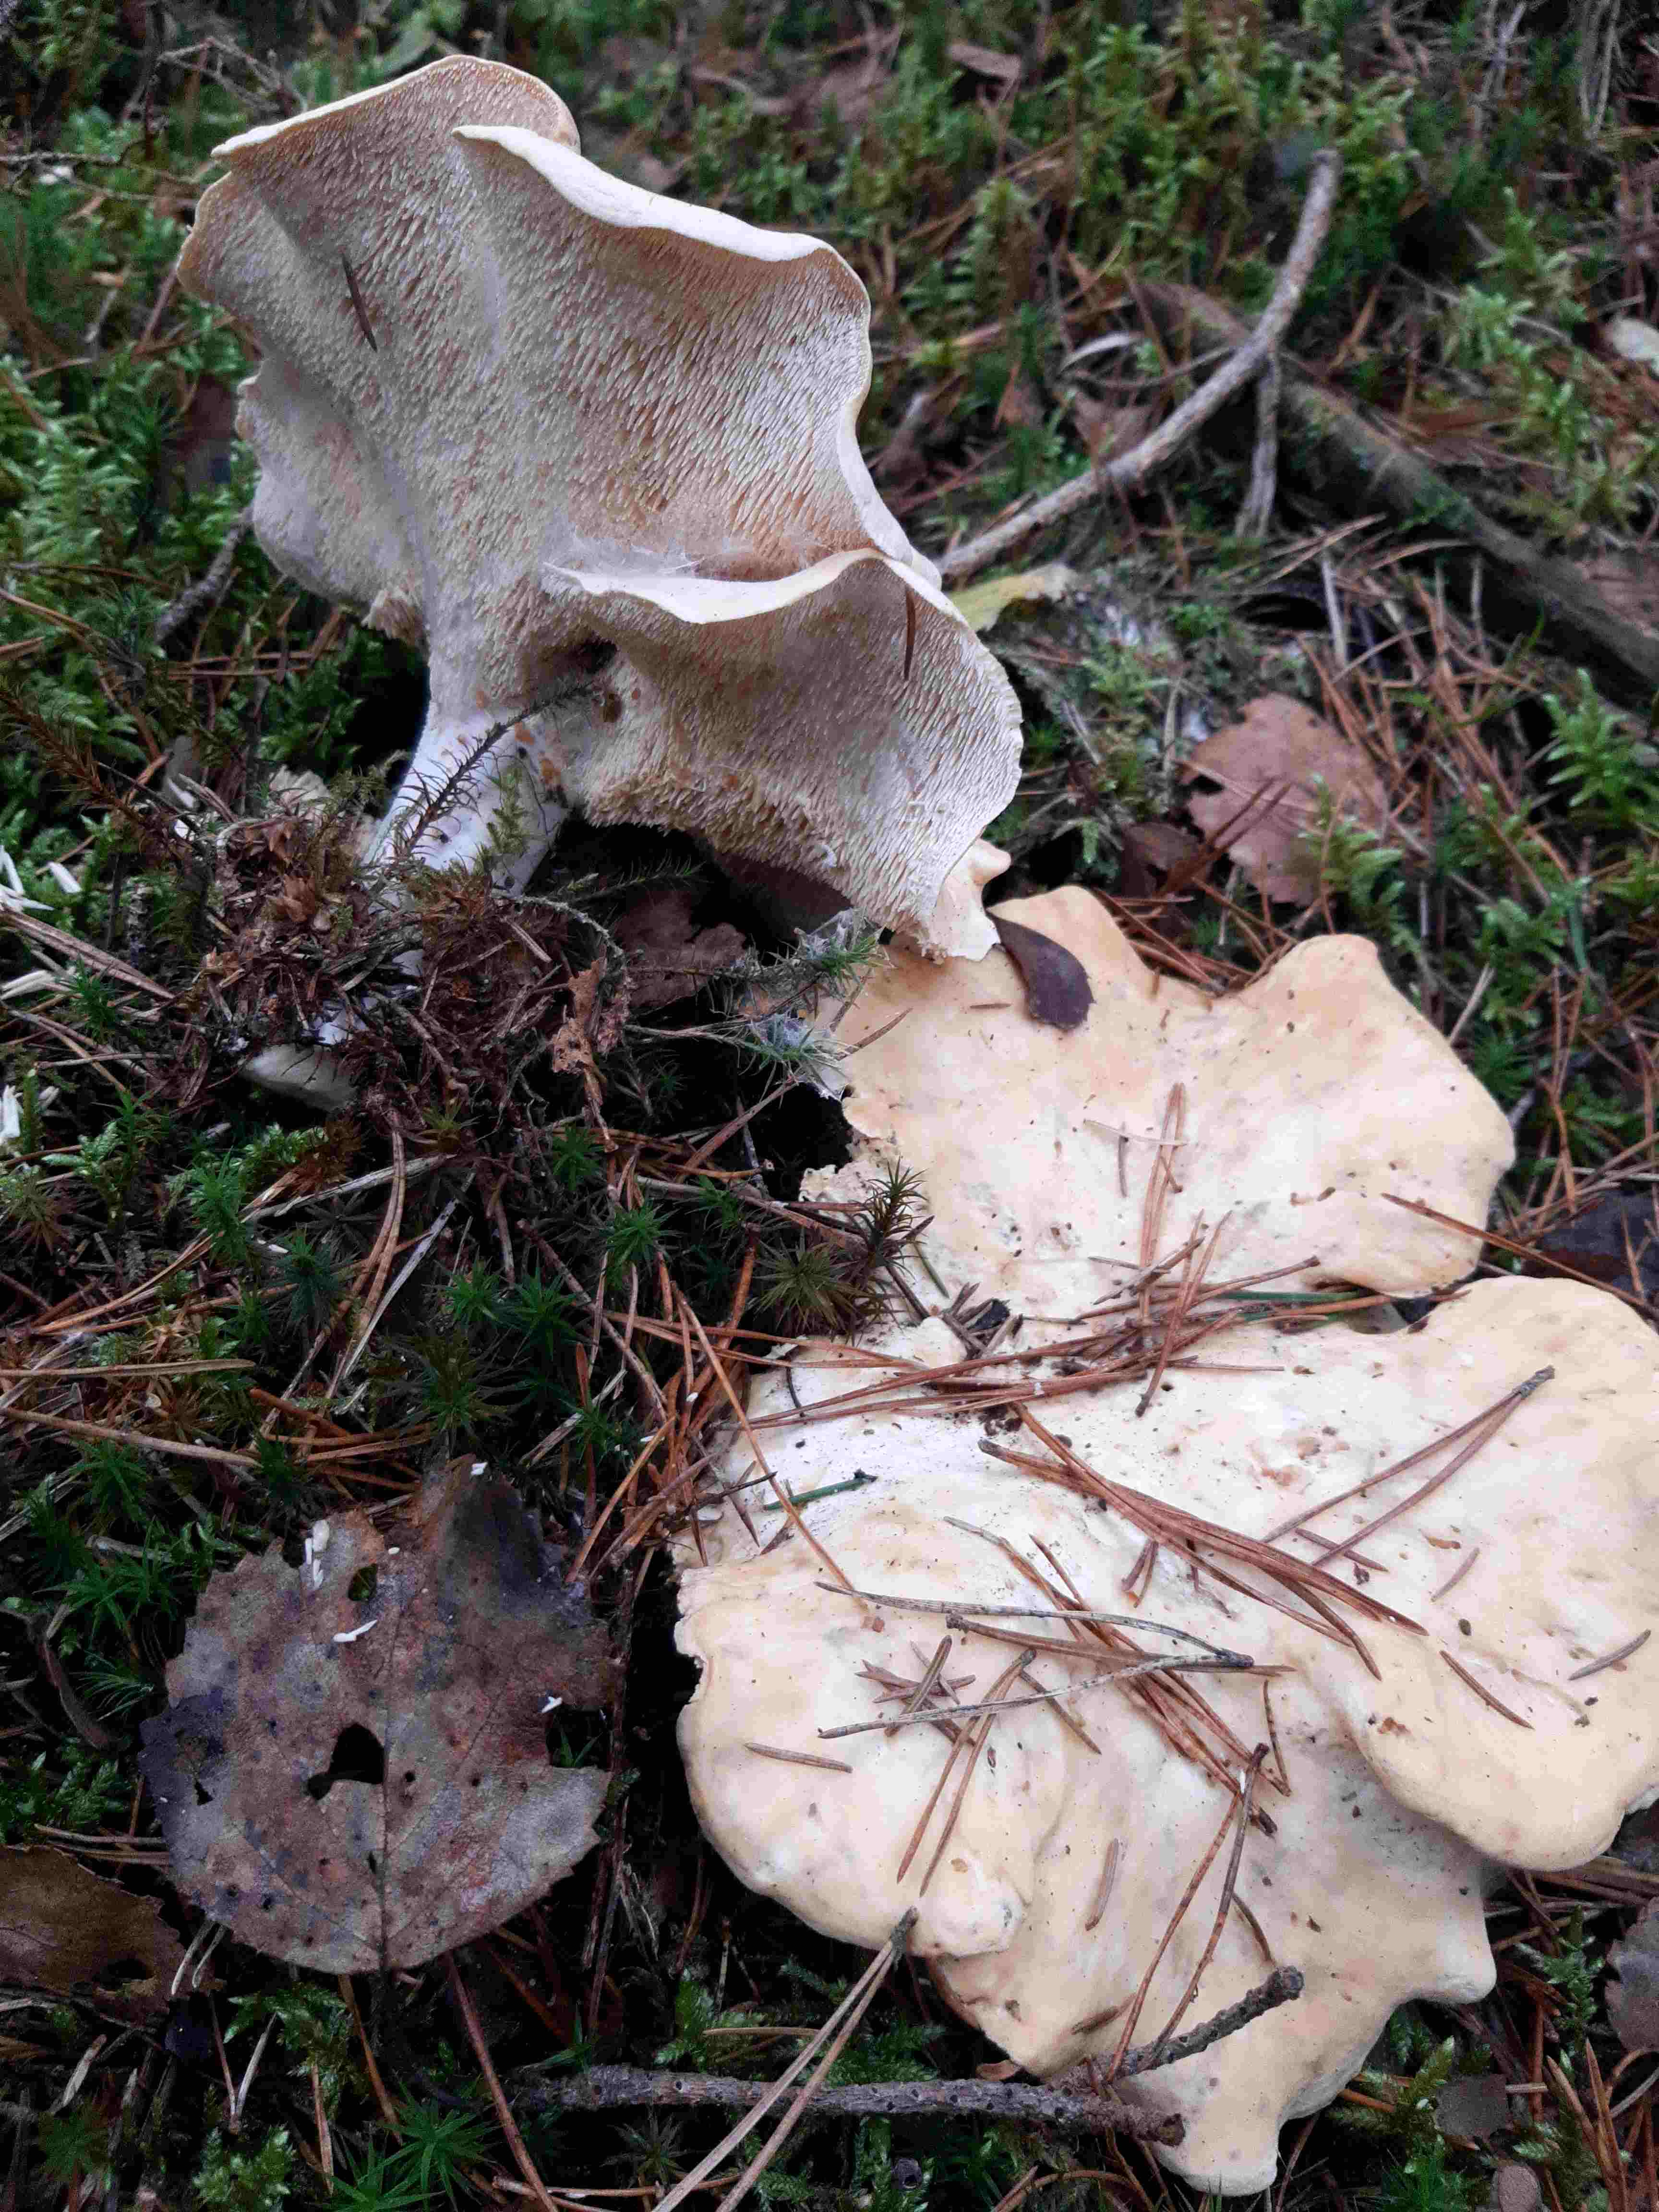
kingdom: Fungi
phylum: Basidiomycota
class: Agaricomycetes
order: Cantharellales
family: Hydnaceae
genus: Hydnum
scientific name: Hydnum repandum
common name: almindelig pigsvamp
